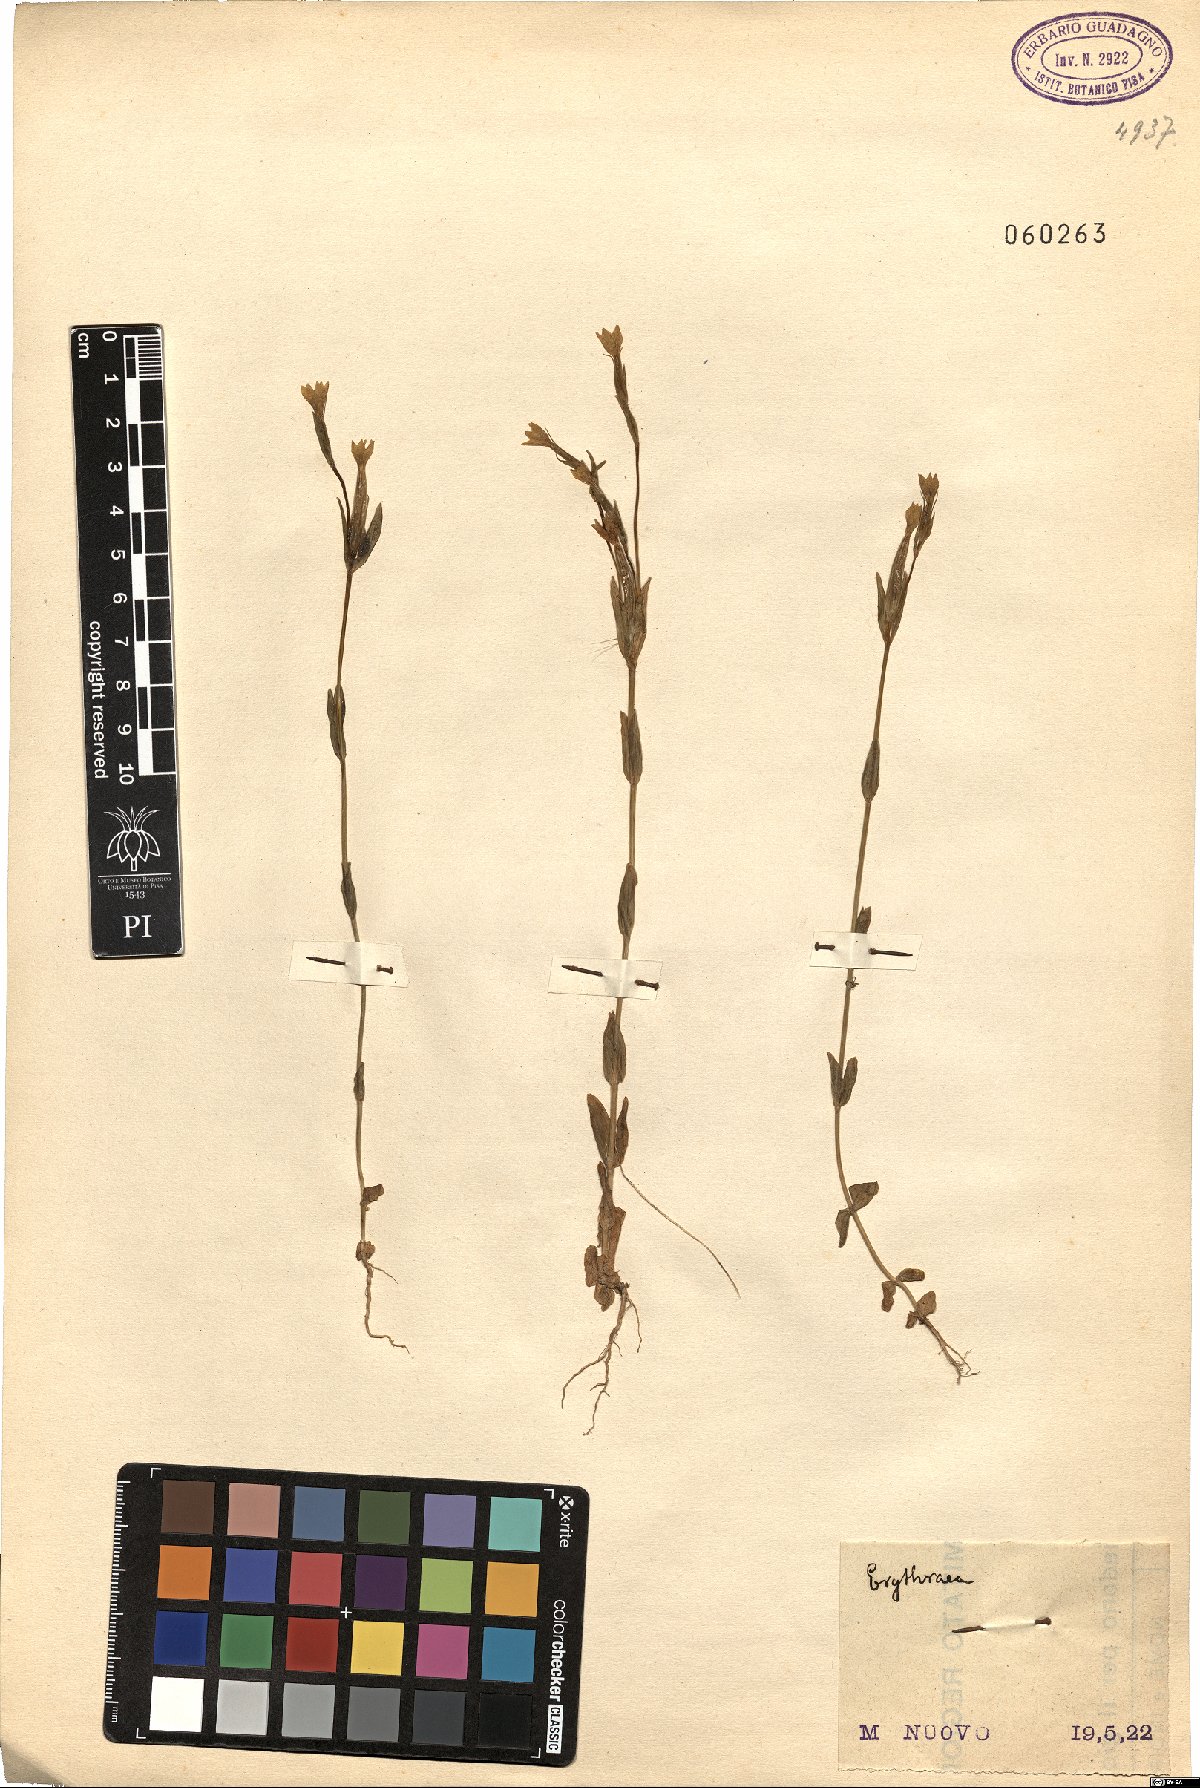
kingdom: Plantae
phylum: Tracheophyta
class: Magnoliopsida
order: Gentianales
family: Gentianaceae
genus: Erythraea
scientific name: Erythraea
